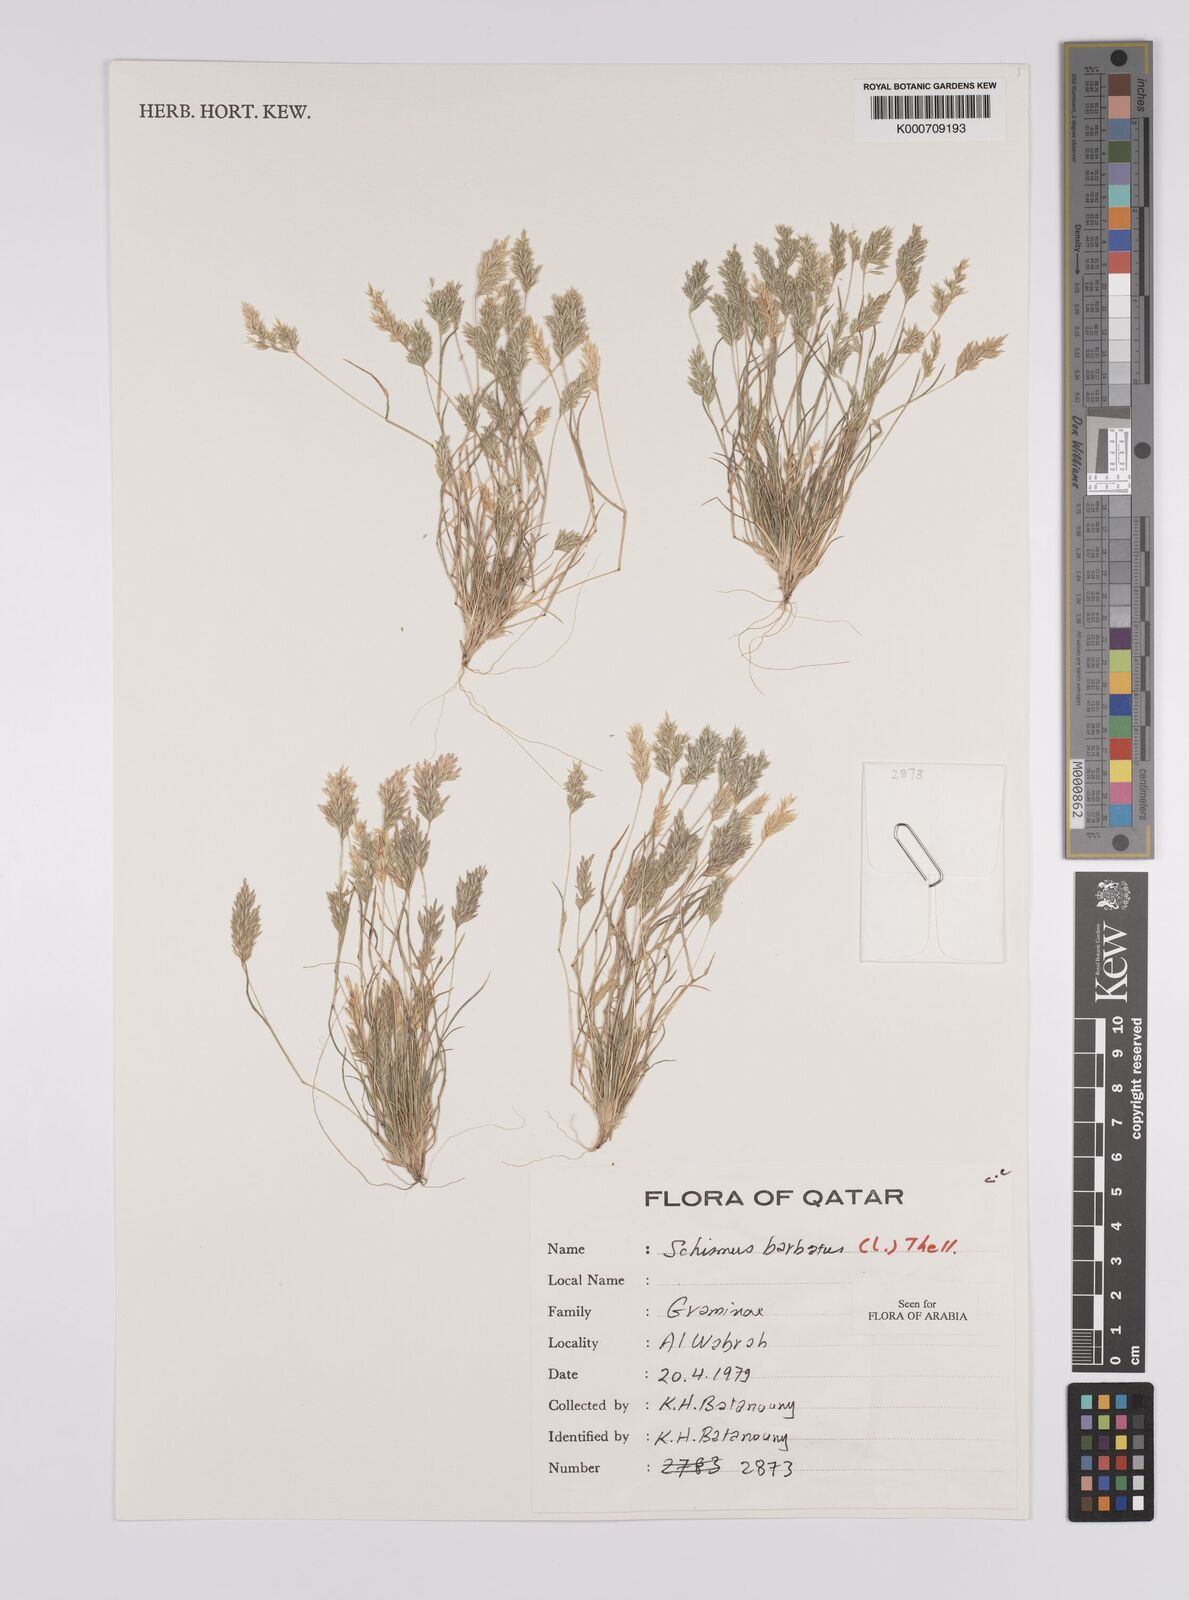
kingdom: Plantae
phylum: Tracheophyta
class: Liliopsida
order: Poales
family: Poaceae
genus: Schismus
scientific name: Schismus barbatus
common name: Kelch-grass
